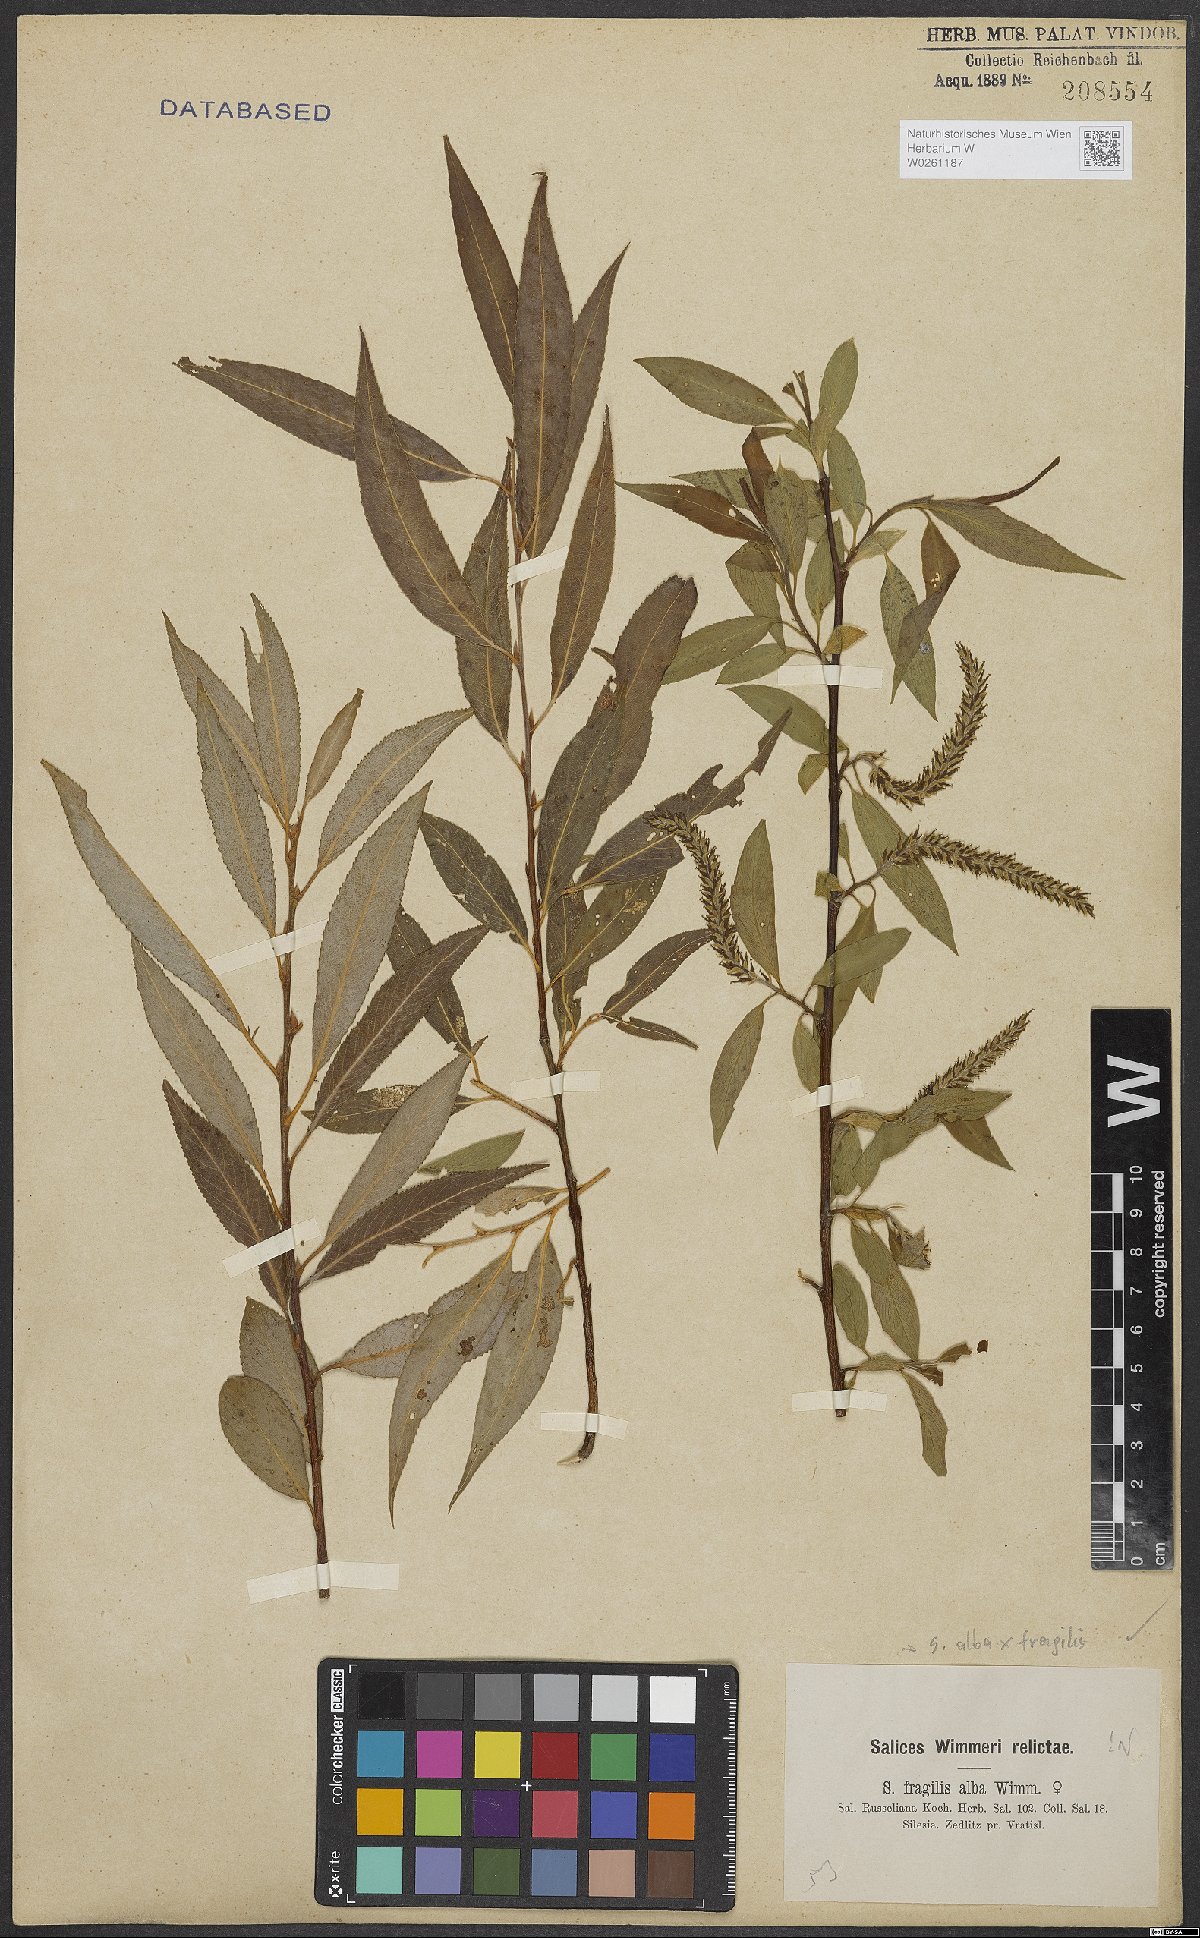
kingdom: Plantae
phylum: Tracheophyta
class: Magnoliopsida
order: Malpighiales
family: Salicaceae
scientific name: Salicaceae
